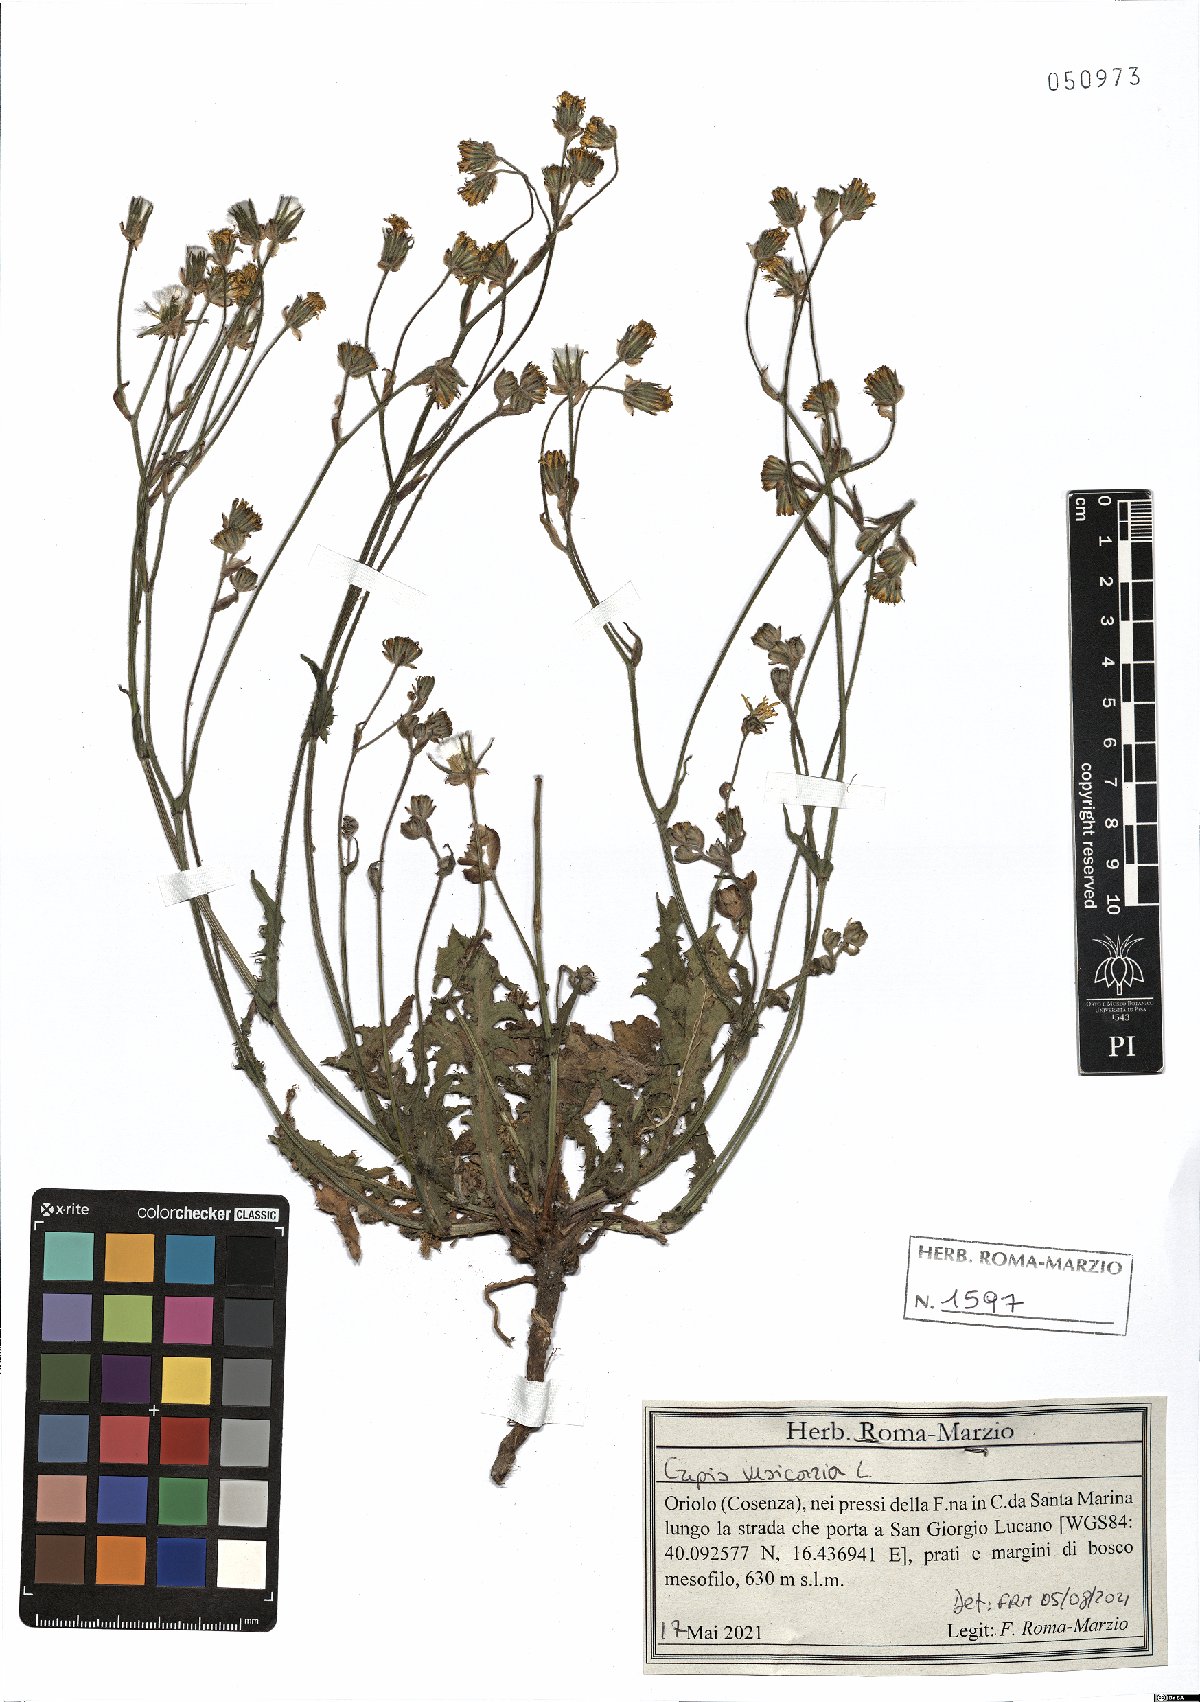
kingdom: Plantae
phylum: Tracheophyta
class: Magnoliopsida
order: Asterales
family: Asteraceae
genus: Crepis
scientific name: Crepis vesicaria
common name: Beaked hawksbeard
